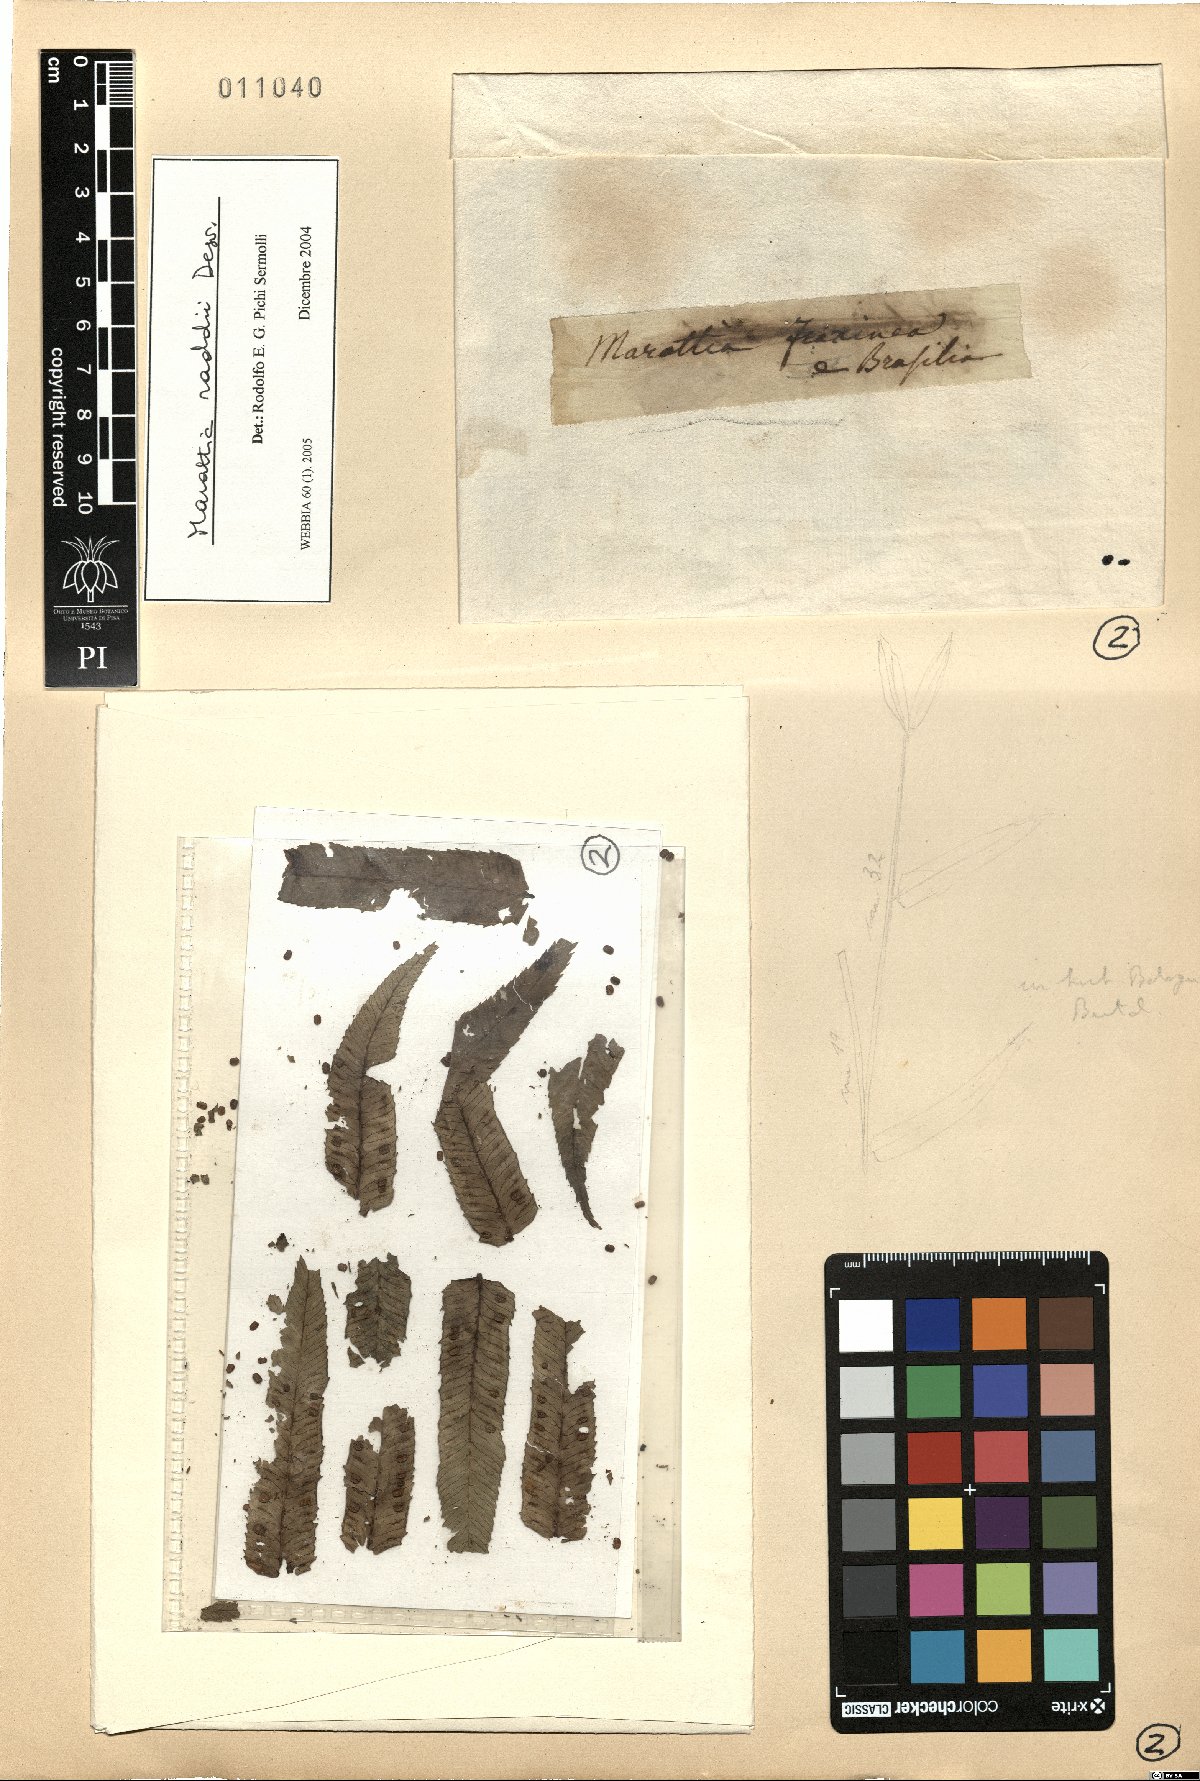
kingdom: Plantae
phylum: Tracheophyta
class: Polypodiopsida
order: Marattiales
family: Marattiaceae
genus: Eupodium
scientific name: Eupodium cicutifolium
